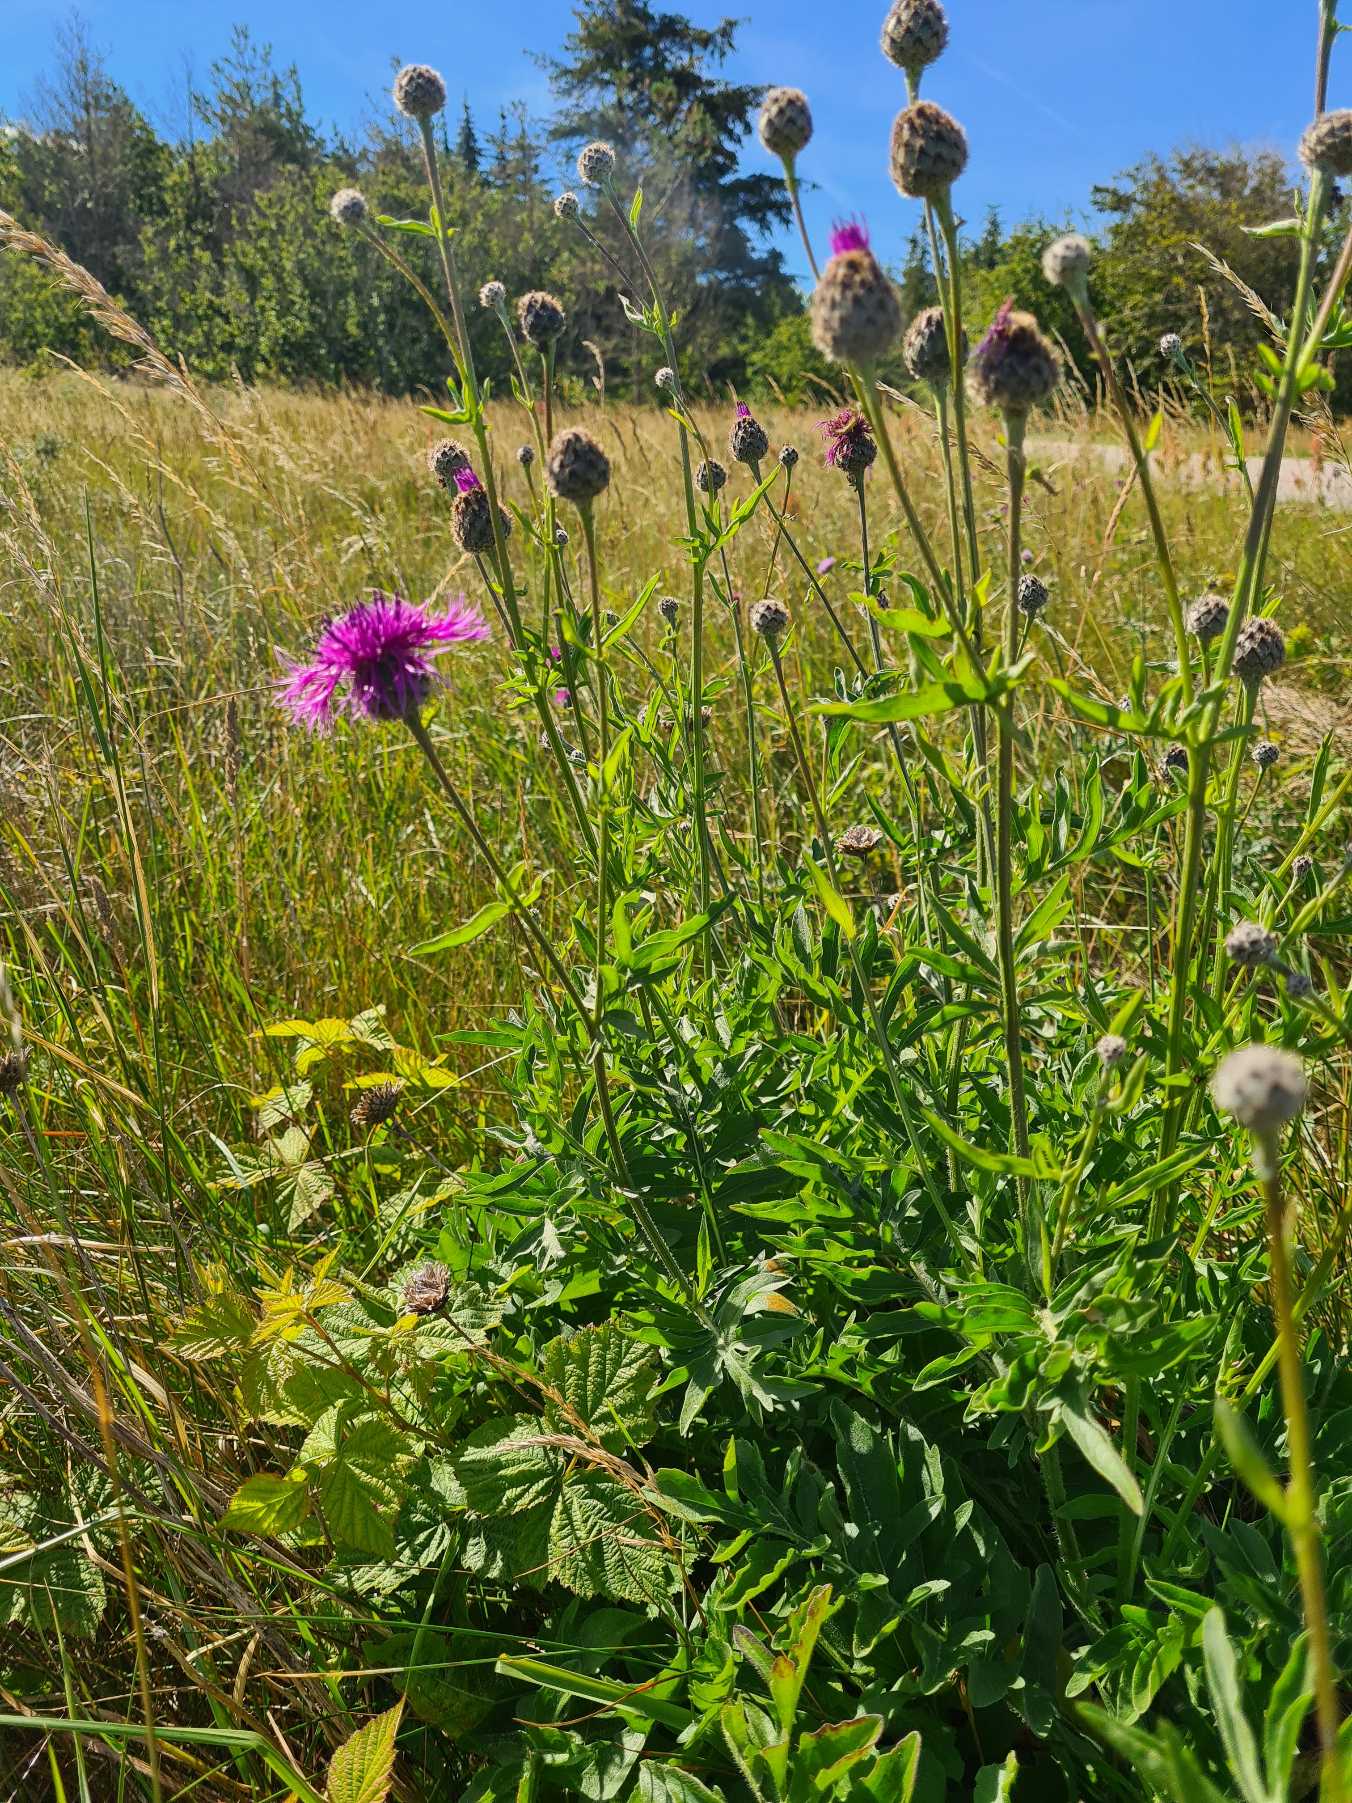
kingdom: Plantae
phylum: Tracheophyta
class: Magnoliopsida
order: Asterales
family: Asteraceae
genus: Centaurea
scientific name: Centaurea scabiosa
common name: Stor knopurt
